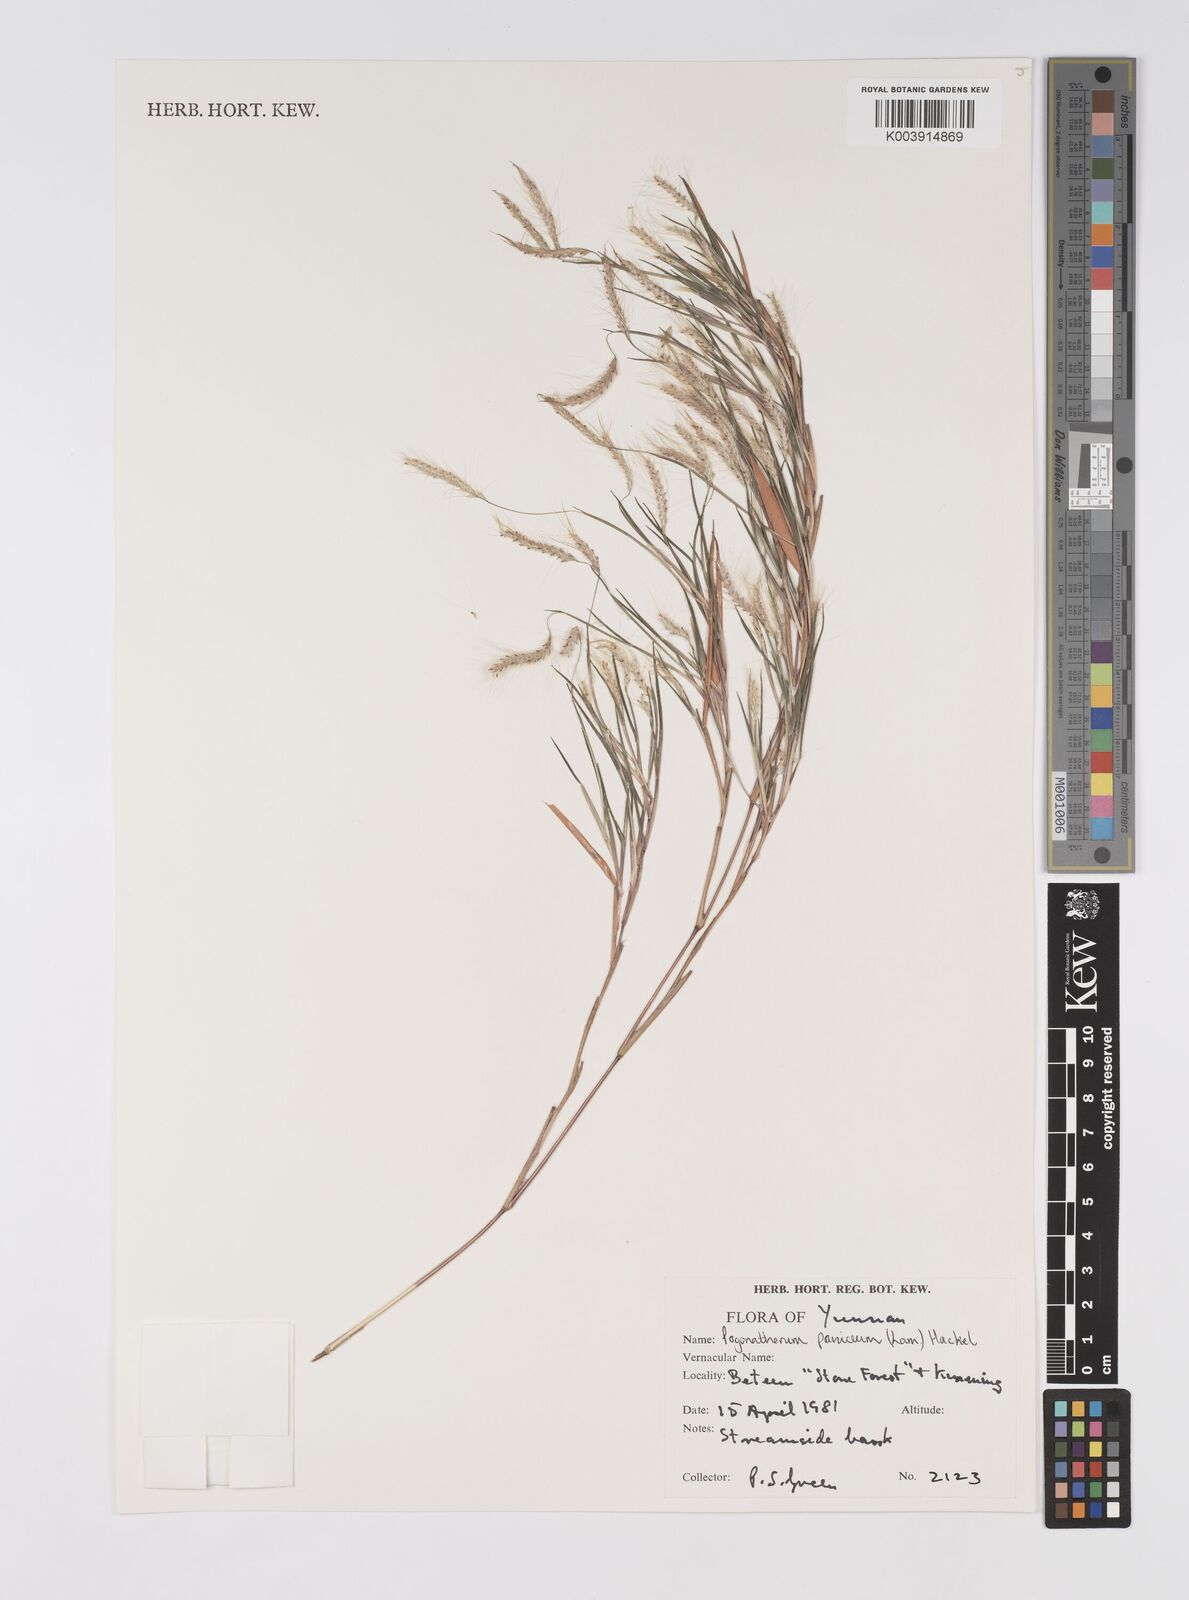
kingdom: Plantae
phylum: Tracheophyta
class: Liliopsida
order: Poales
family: Poaceae
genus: Pogonatherum
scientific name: Pogonatherum paniceum
